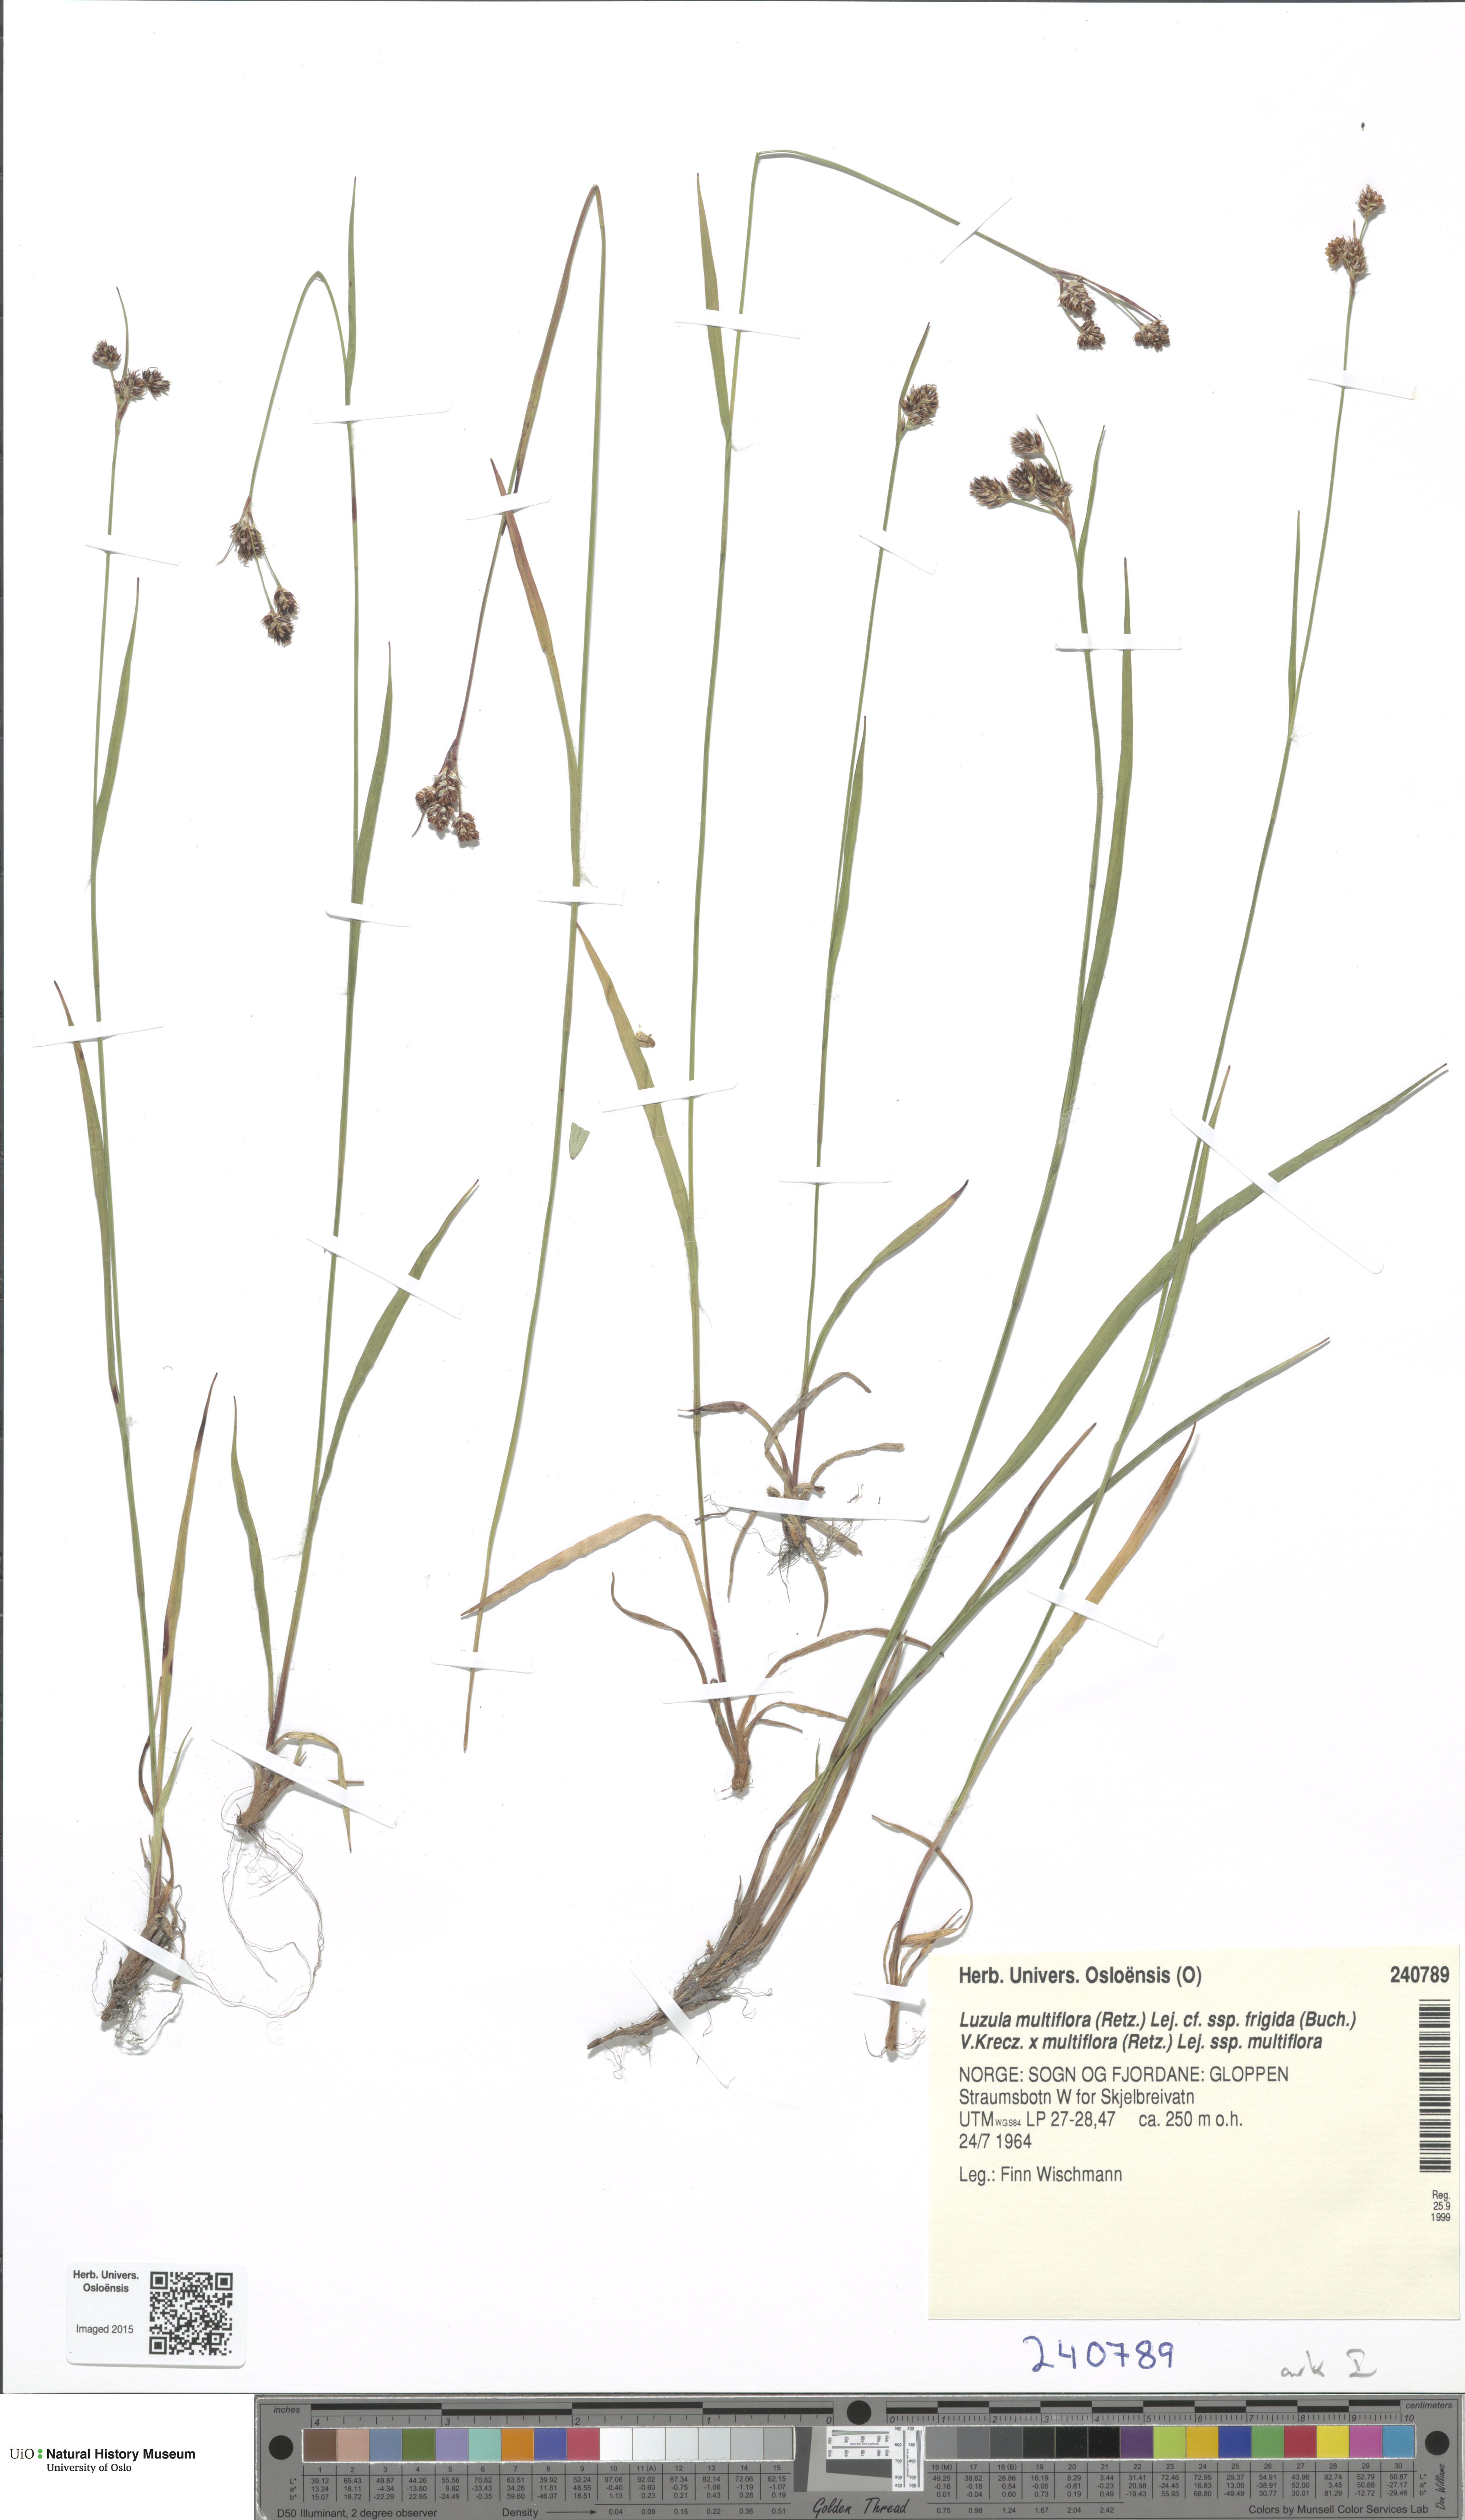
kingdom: Plantae
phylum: Tracheophyta
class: Liliopsida
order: Poales
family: Juncaceae
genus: Luzula
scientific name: Luzula
